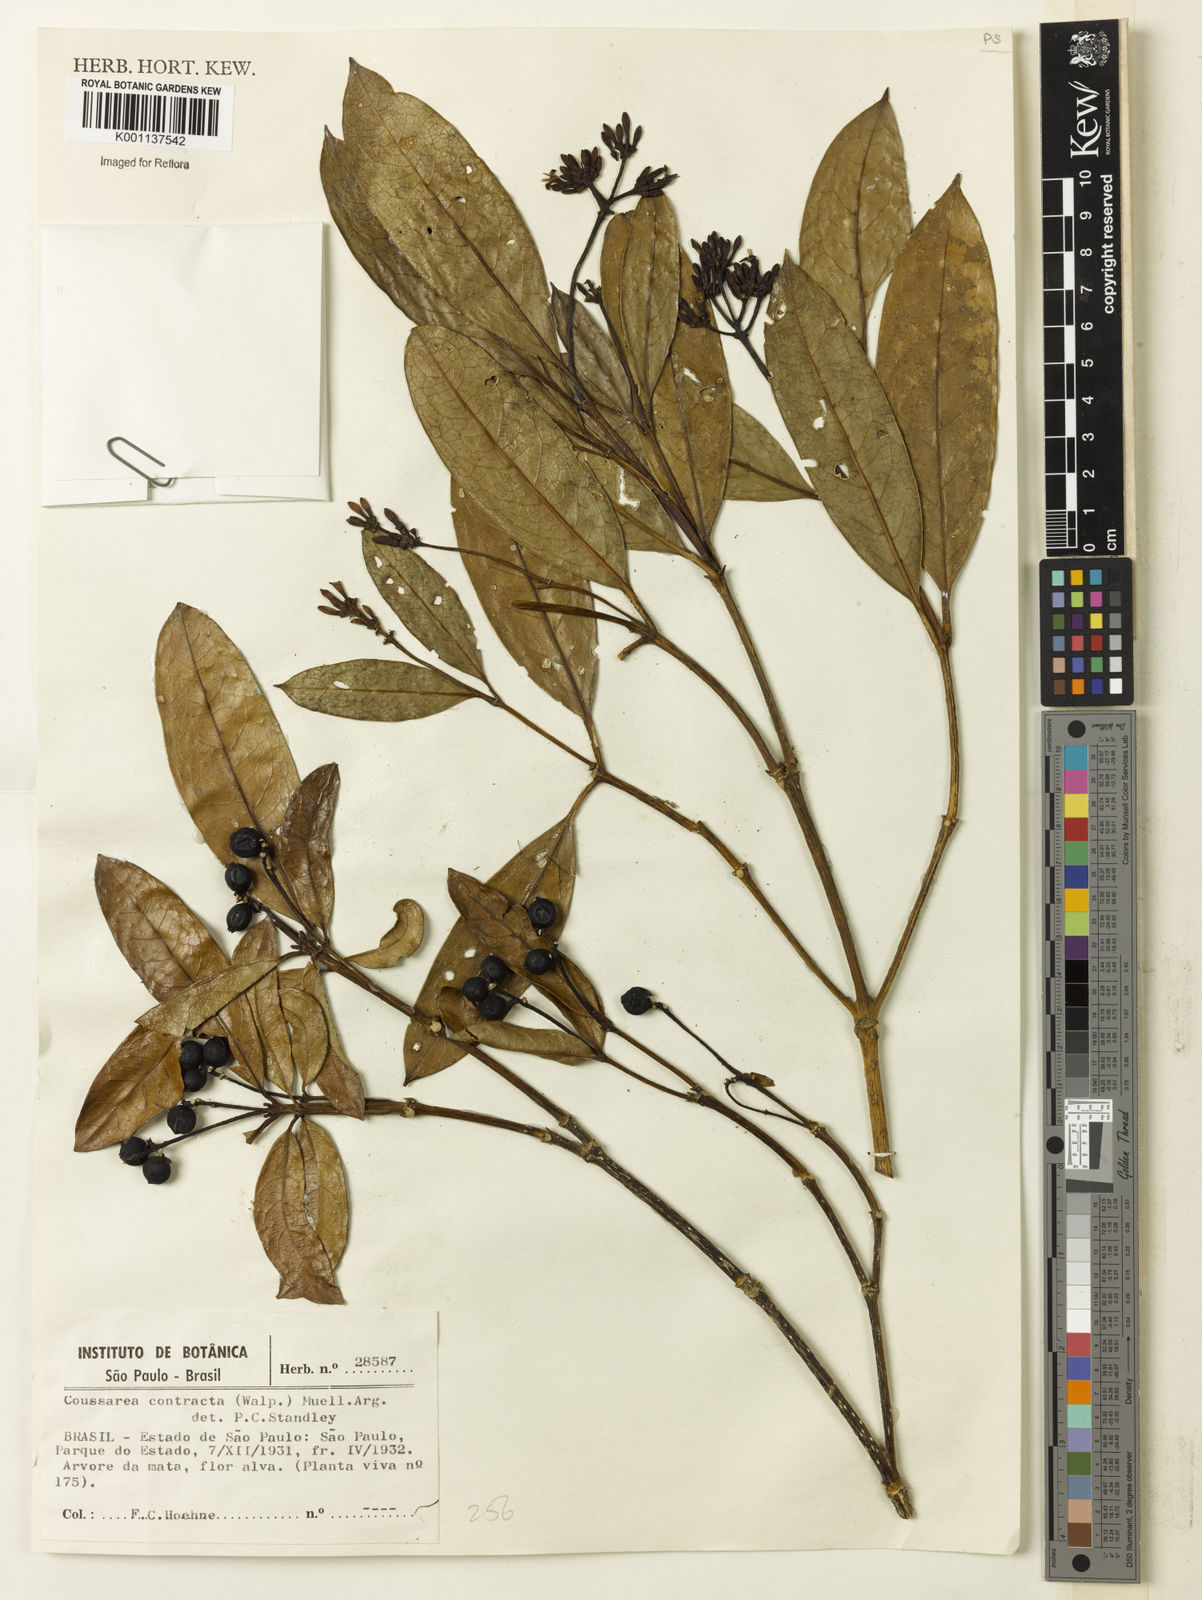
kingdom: Plantae
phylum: Tracheophyta
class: Magnoliopsida
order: Gentianales
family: Rubiaceae
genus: Coussarea
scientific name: Coussarea
